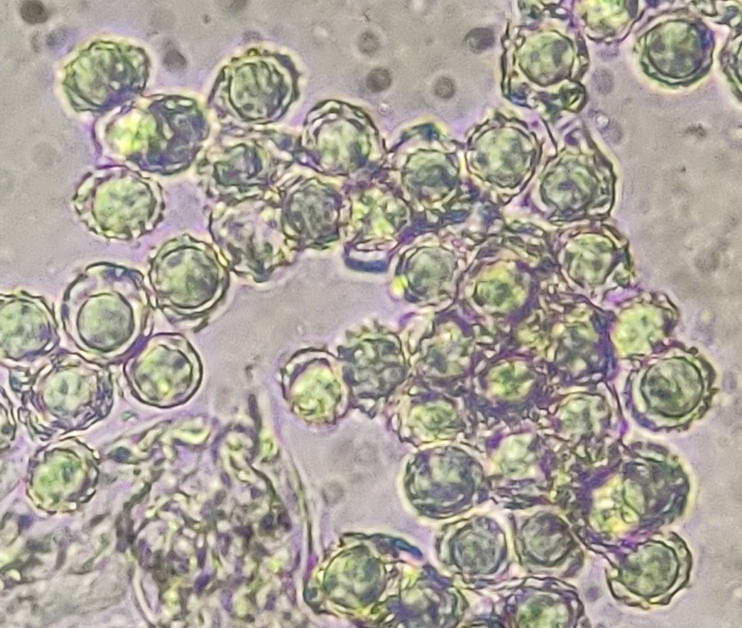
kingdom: Fungi
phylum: Basidiomycota
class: Agaricomycetes
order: Russulales
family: Russulaceae
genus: Lactarius
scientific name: Lactarius cyathuliformis
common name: mørkøjet mælkehat
